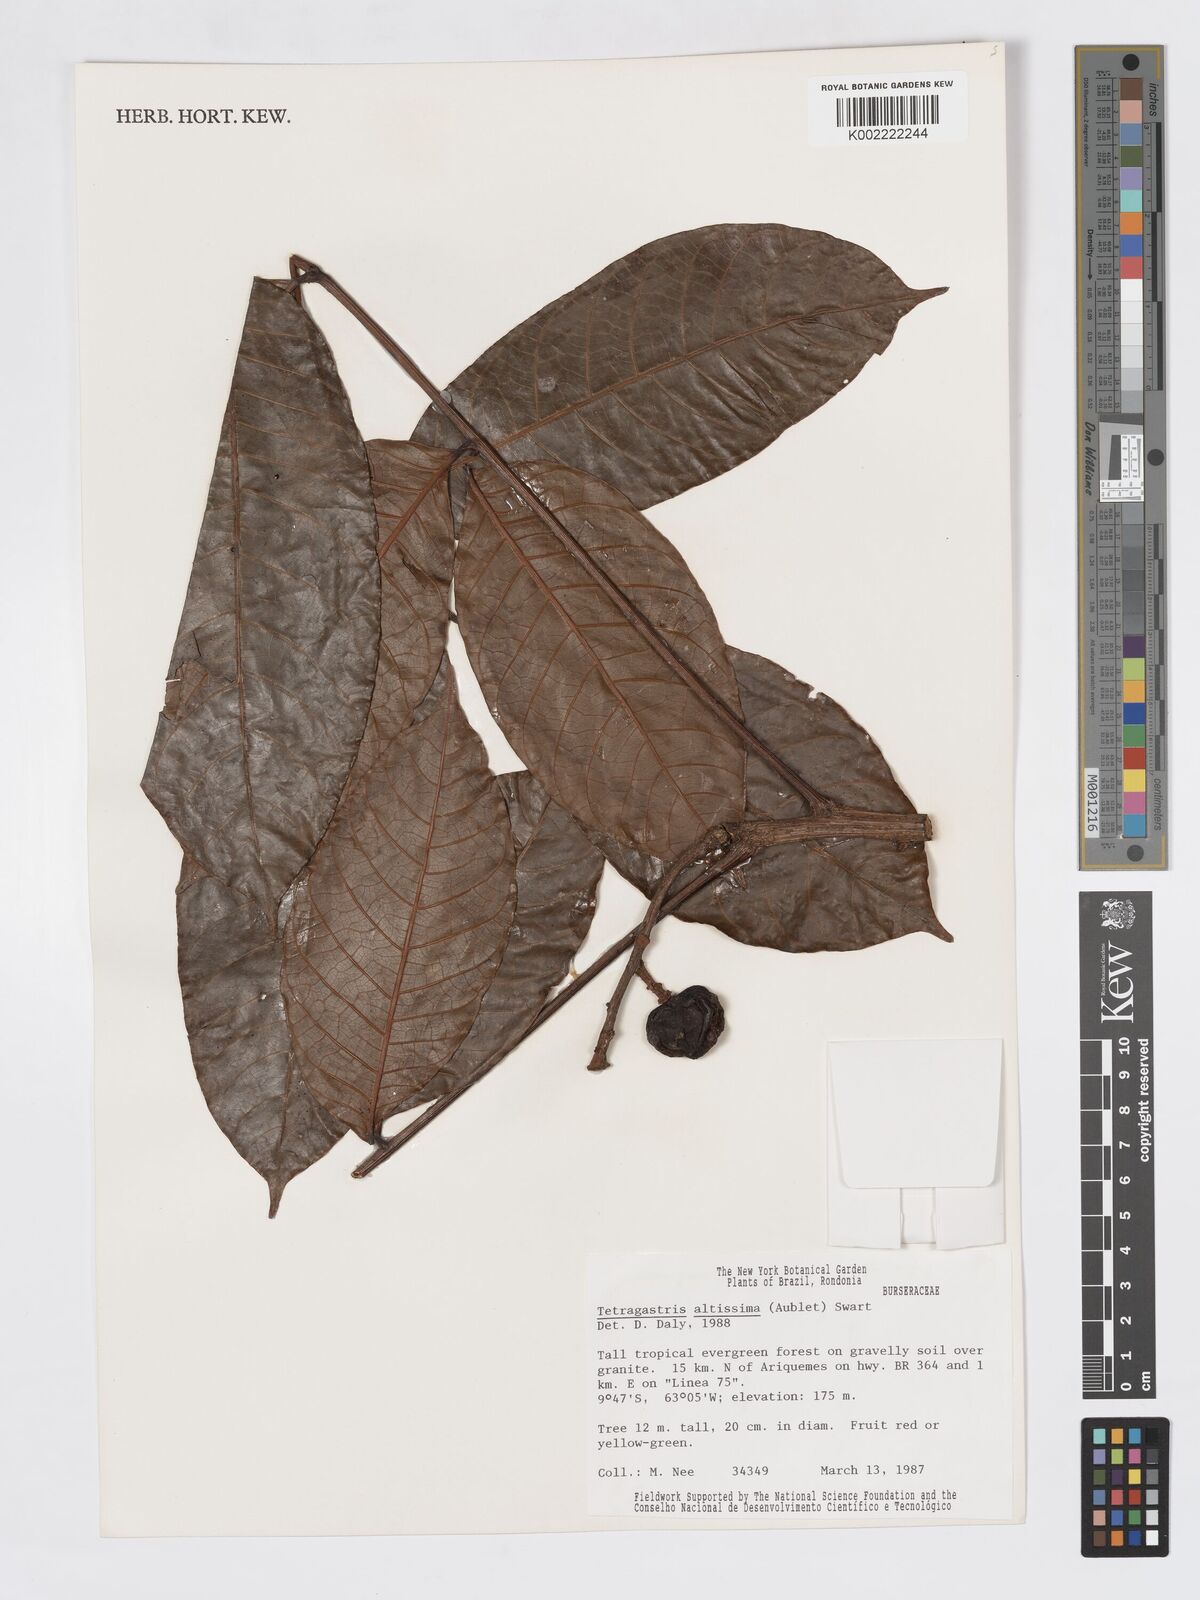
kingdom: Plantae
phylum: Tracheophyta
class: Magnoliopsida
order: Sapindales
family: Burseraceae
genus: Tetragastris
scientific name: Tetragastris altissima
